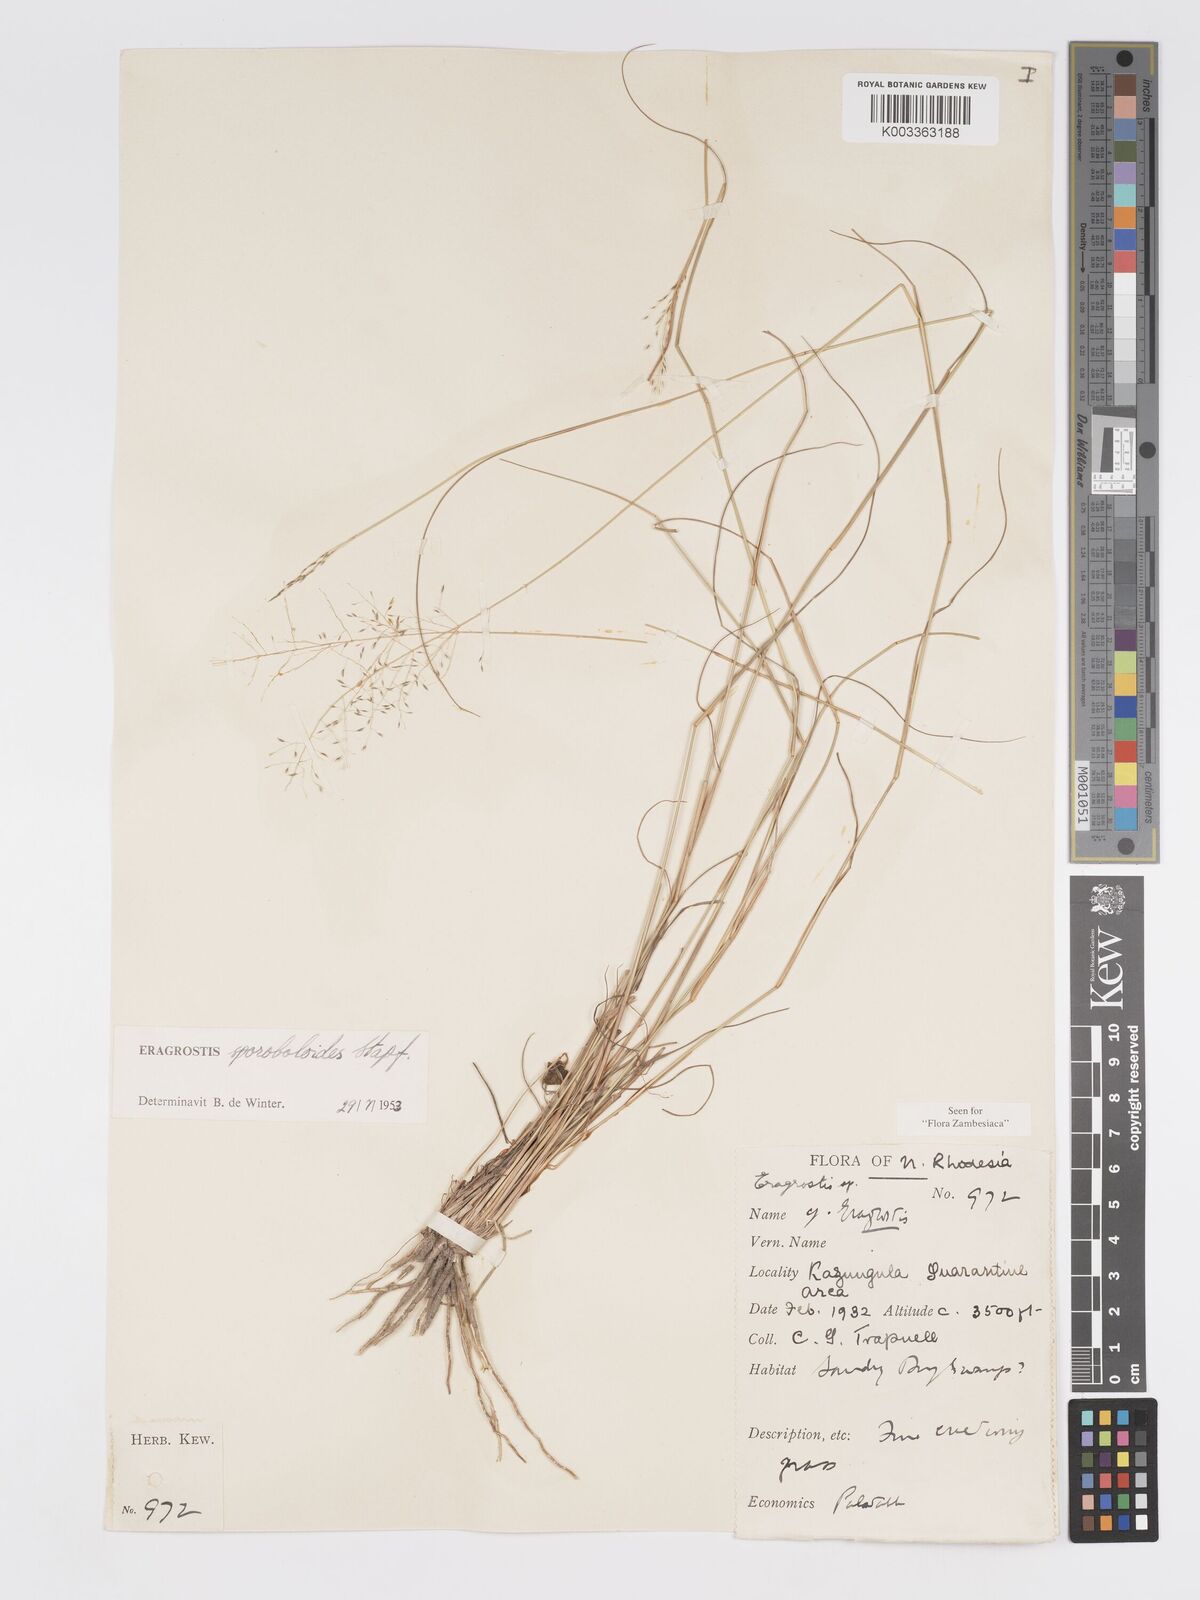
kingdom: Plantae
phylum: Tracheophyta
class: Liliopsida
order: Poales
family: Poaceae
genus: Eragrostis
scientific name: Eragrostis stapfii
